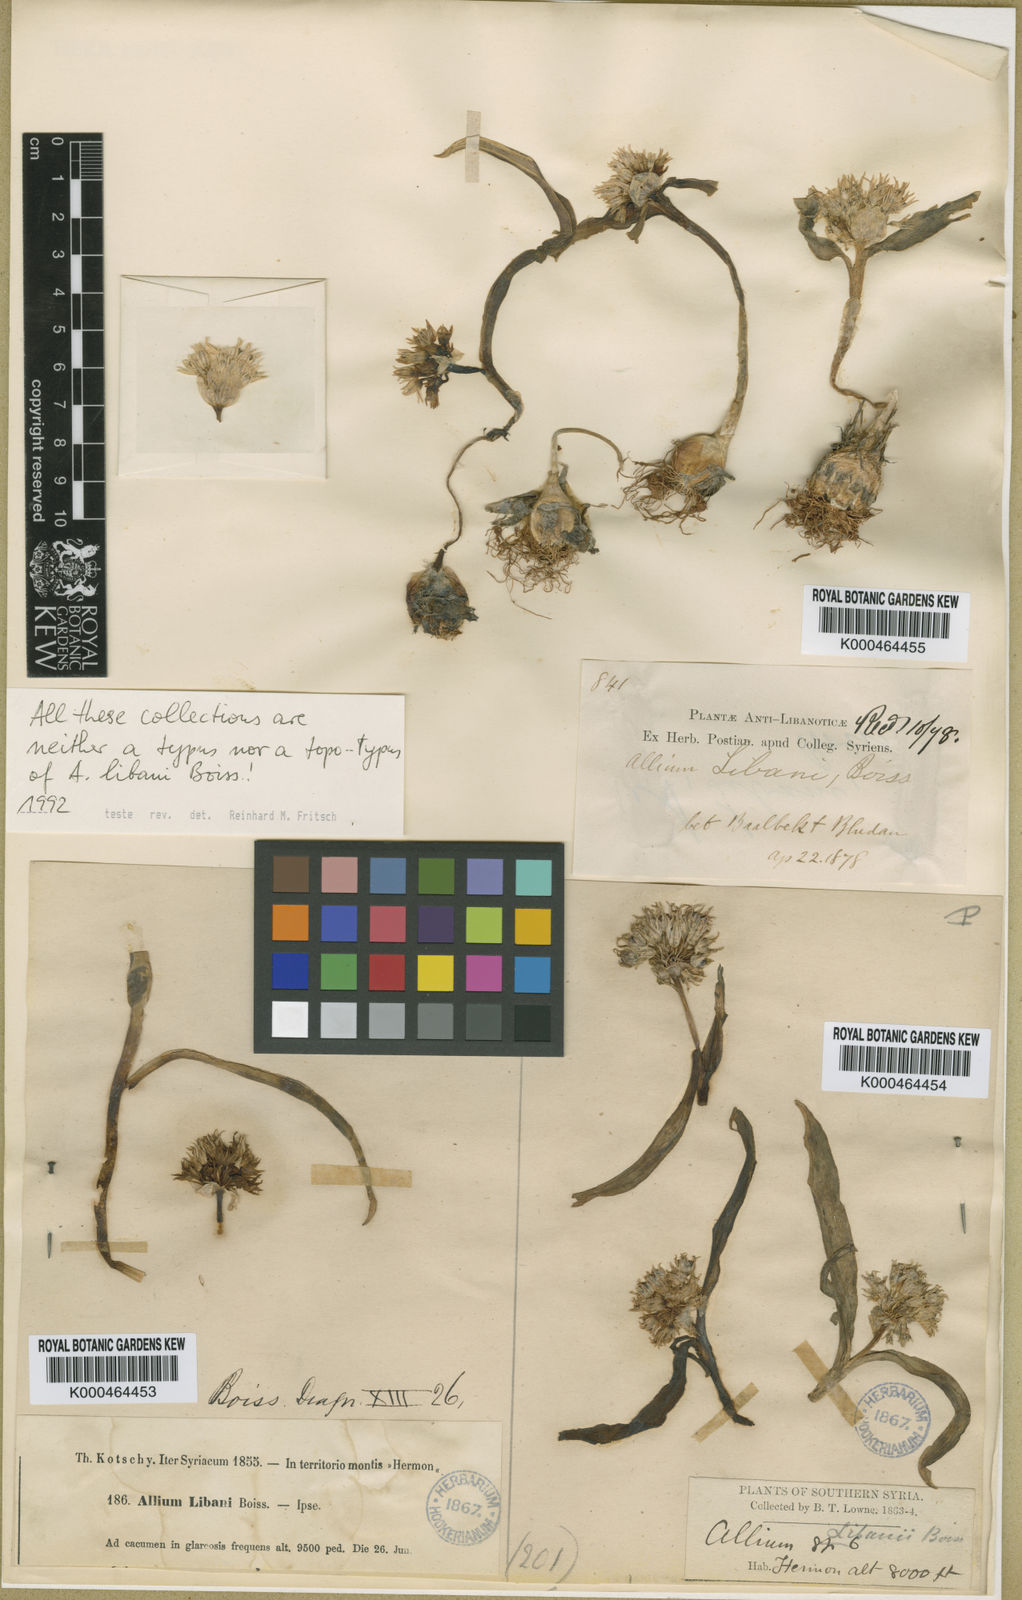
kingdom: Plantae
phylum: Tracheophyta
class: Liliopsida
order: Asparagales
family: Amaryllidaceae
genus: Allium
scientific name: Allium libani
